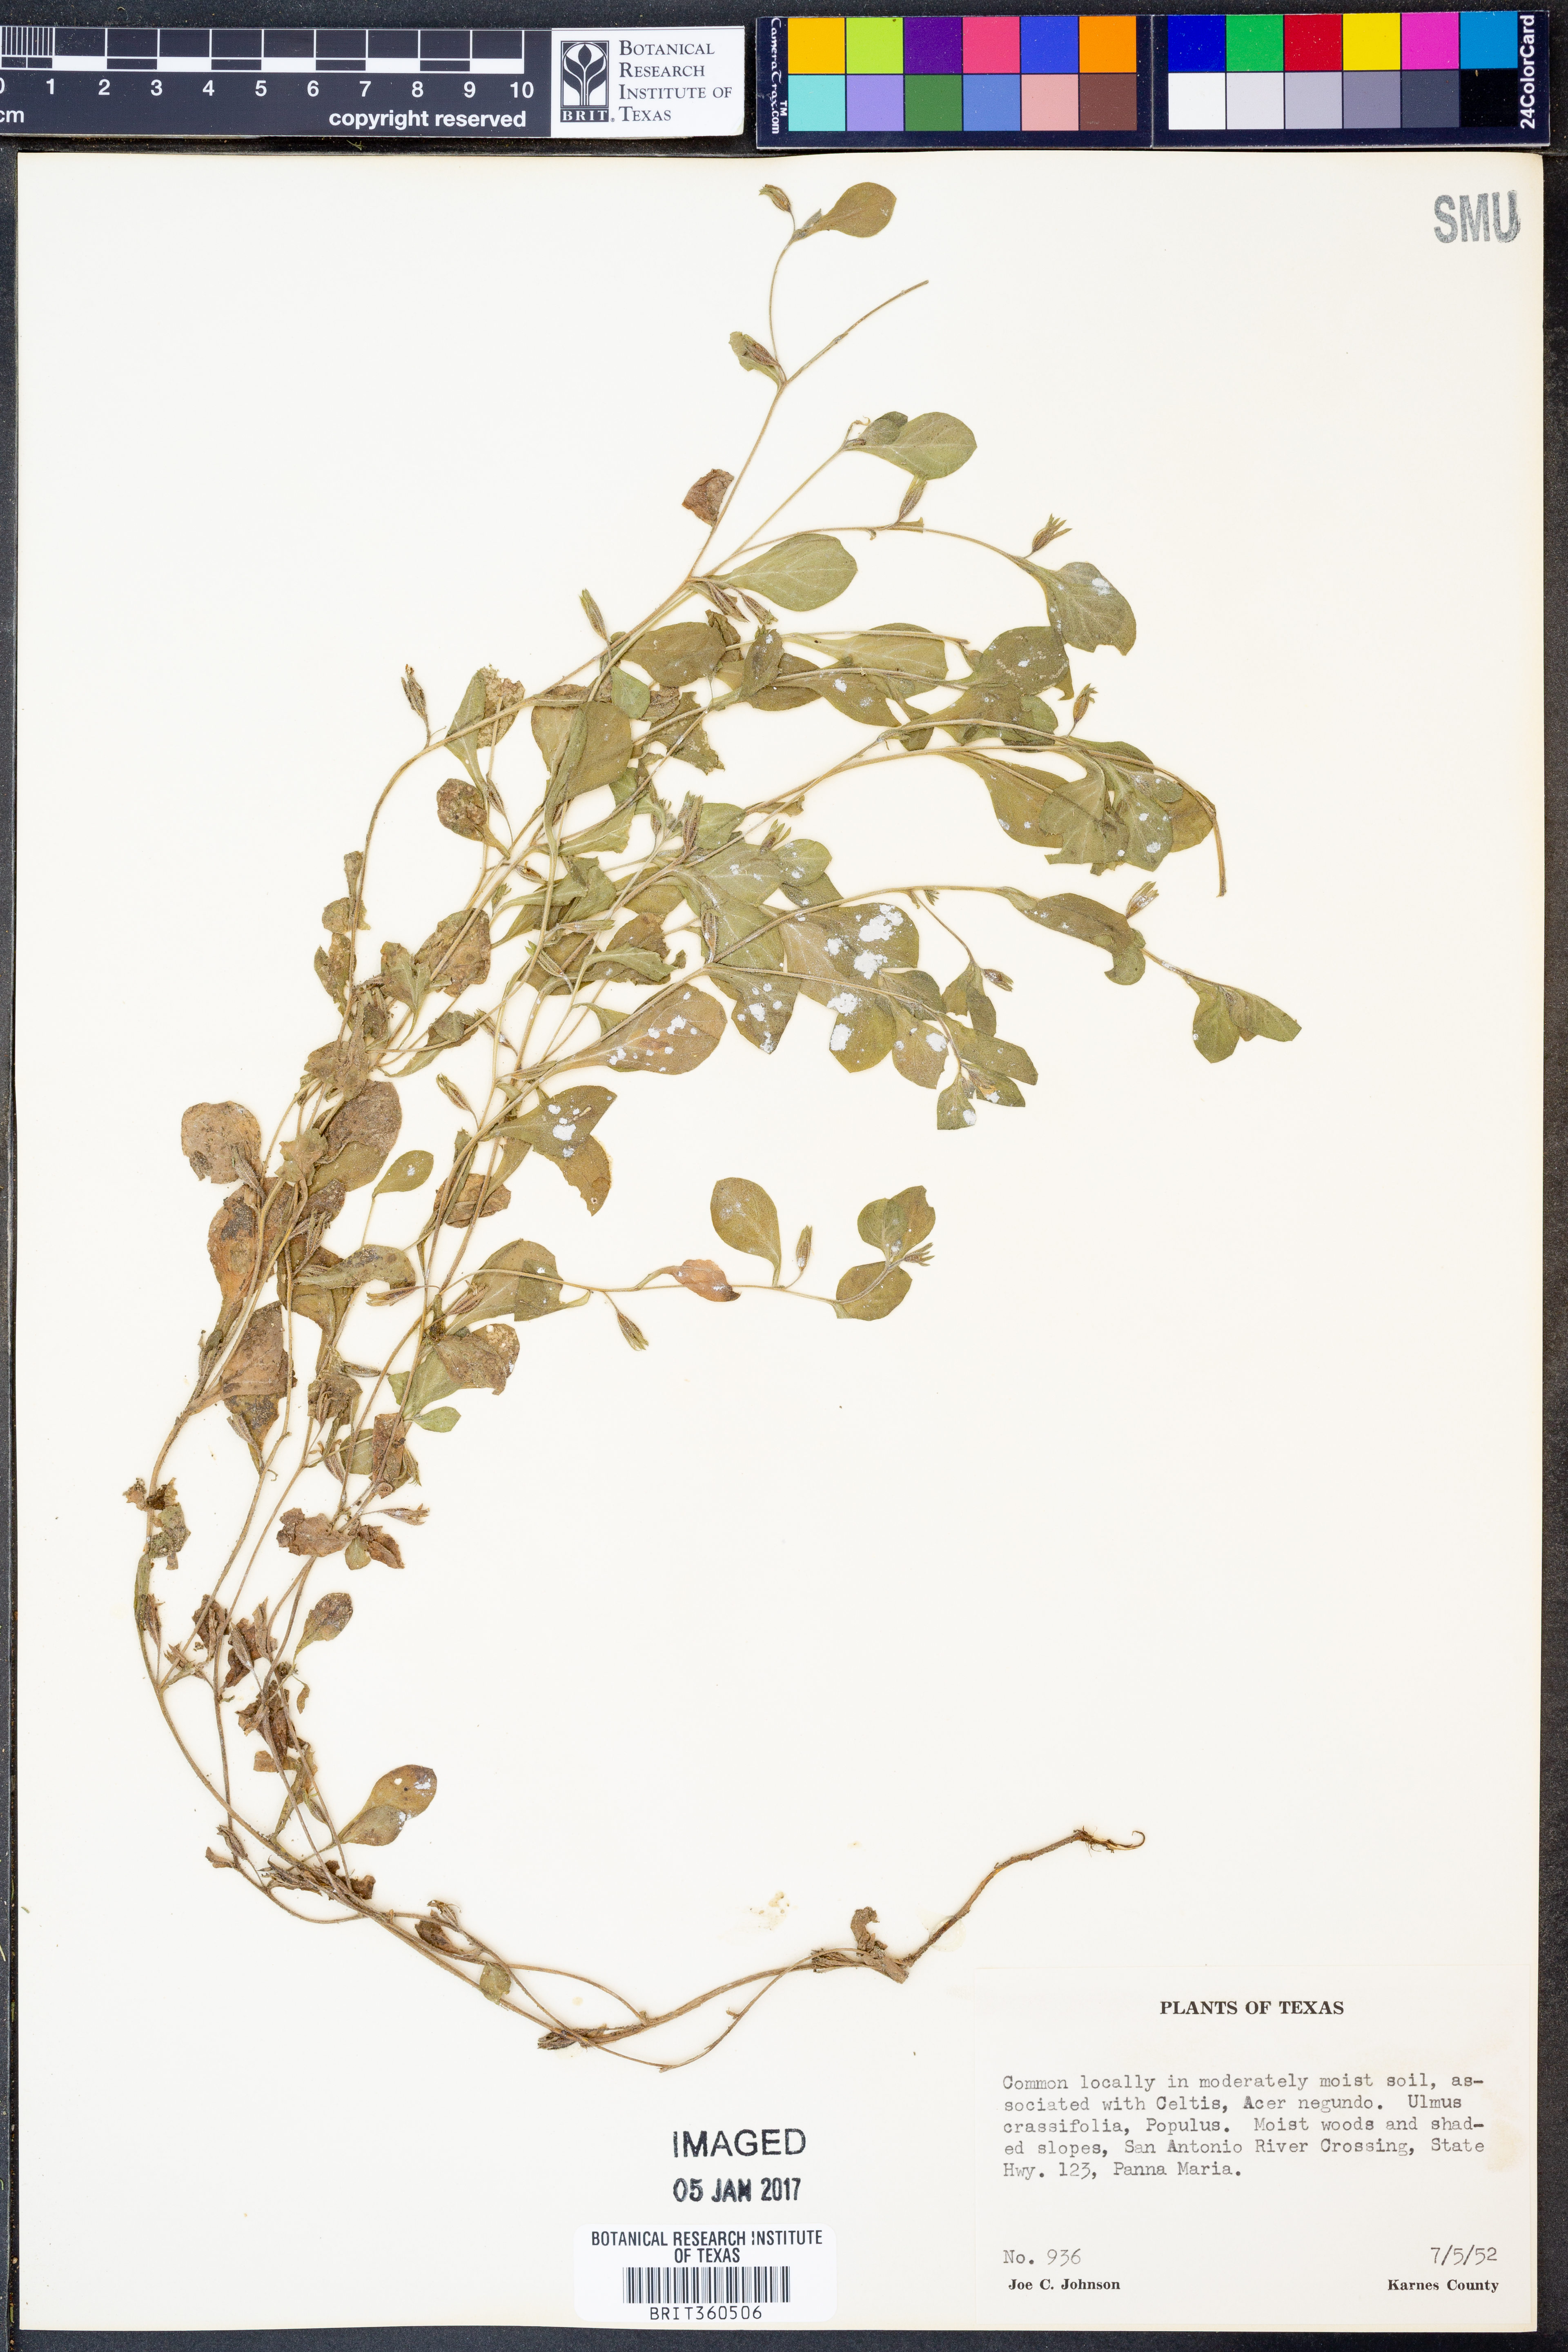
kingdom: Plantae
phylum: Tracheophyta
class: Magnoliopsida
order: Boraginales
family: Namaceae
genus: Nama
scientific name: Nama jamaicense
